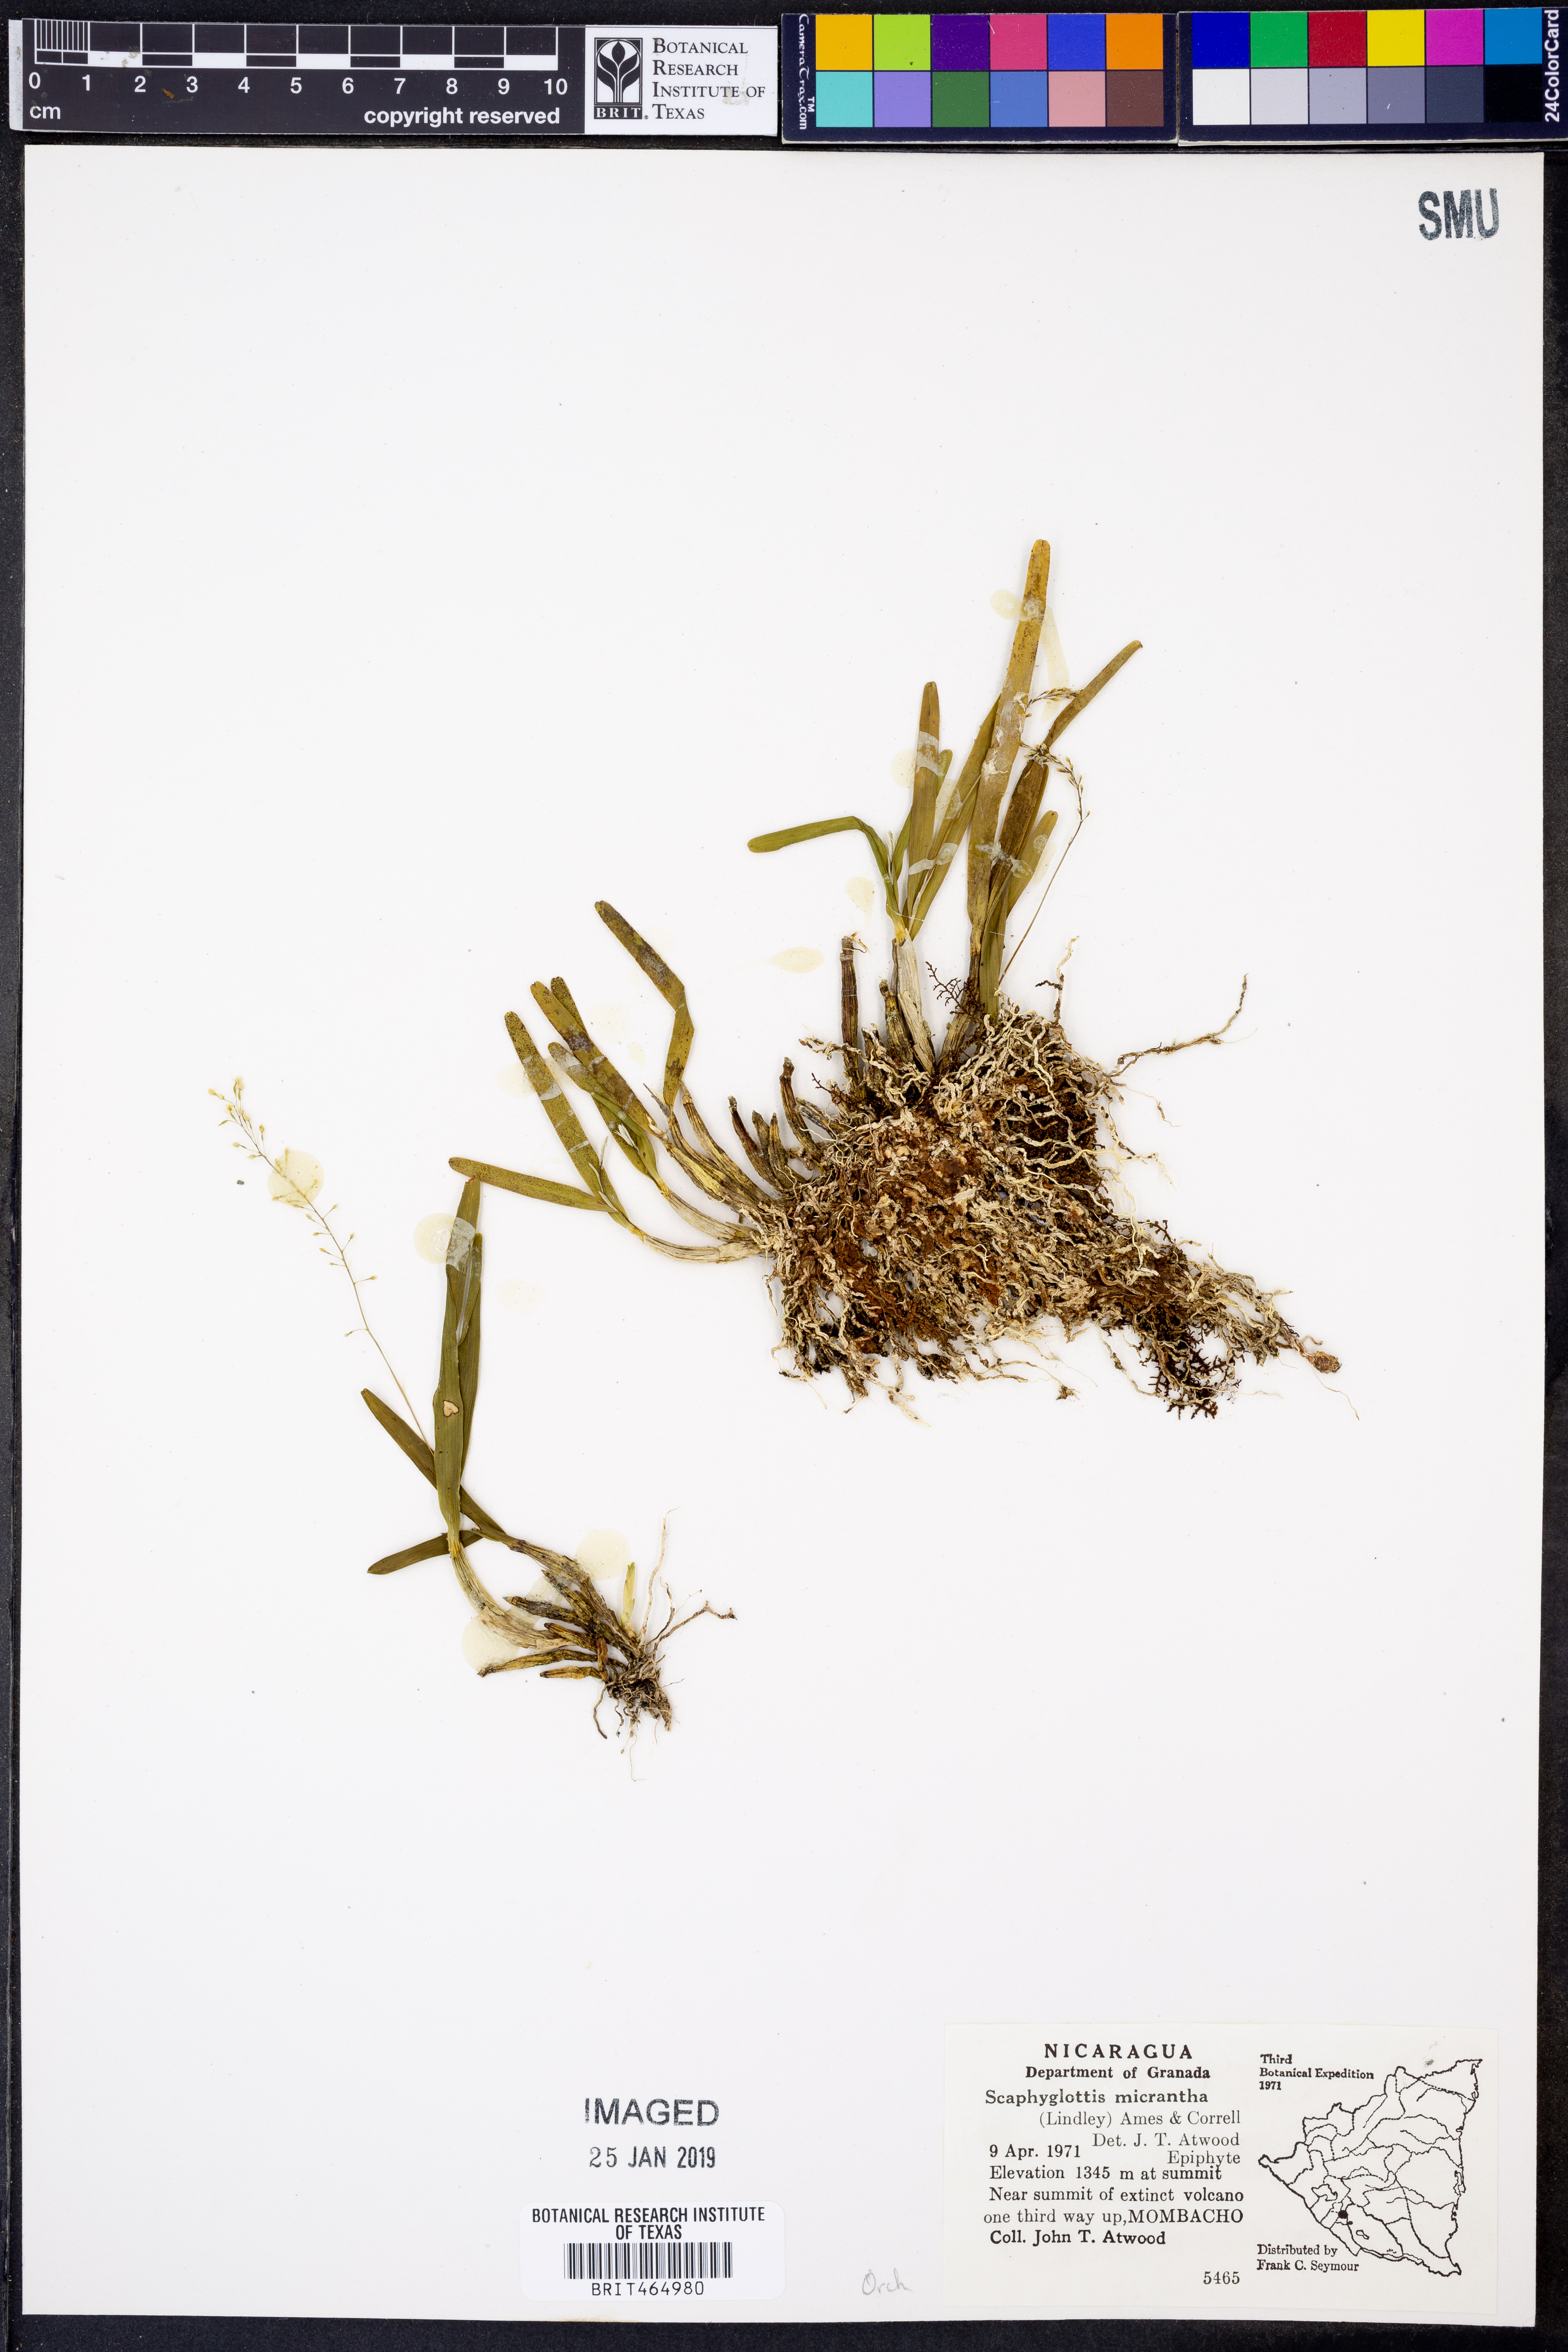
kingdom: Plantae
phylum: Tracheophyta
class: Liliopsida
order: Asparagales
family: Orchidaceae
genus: Scaphyglottis
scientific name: Scaphyglottis micrantha
